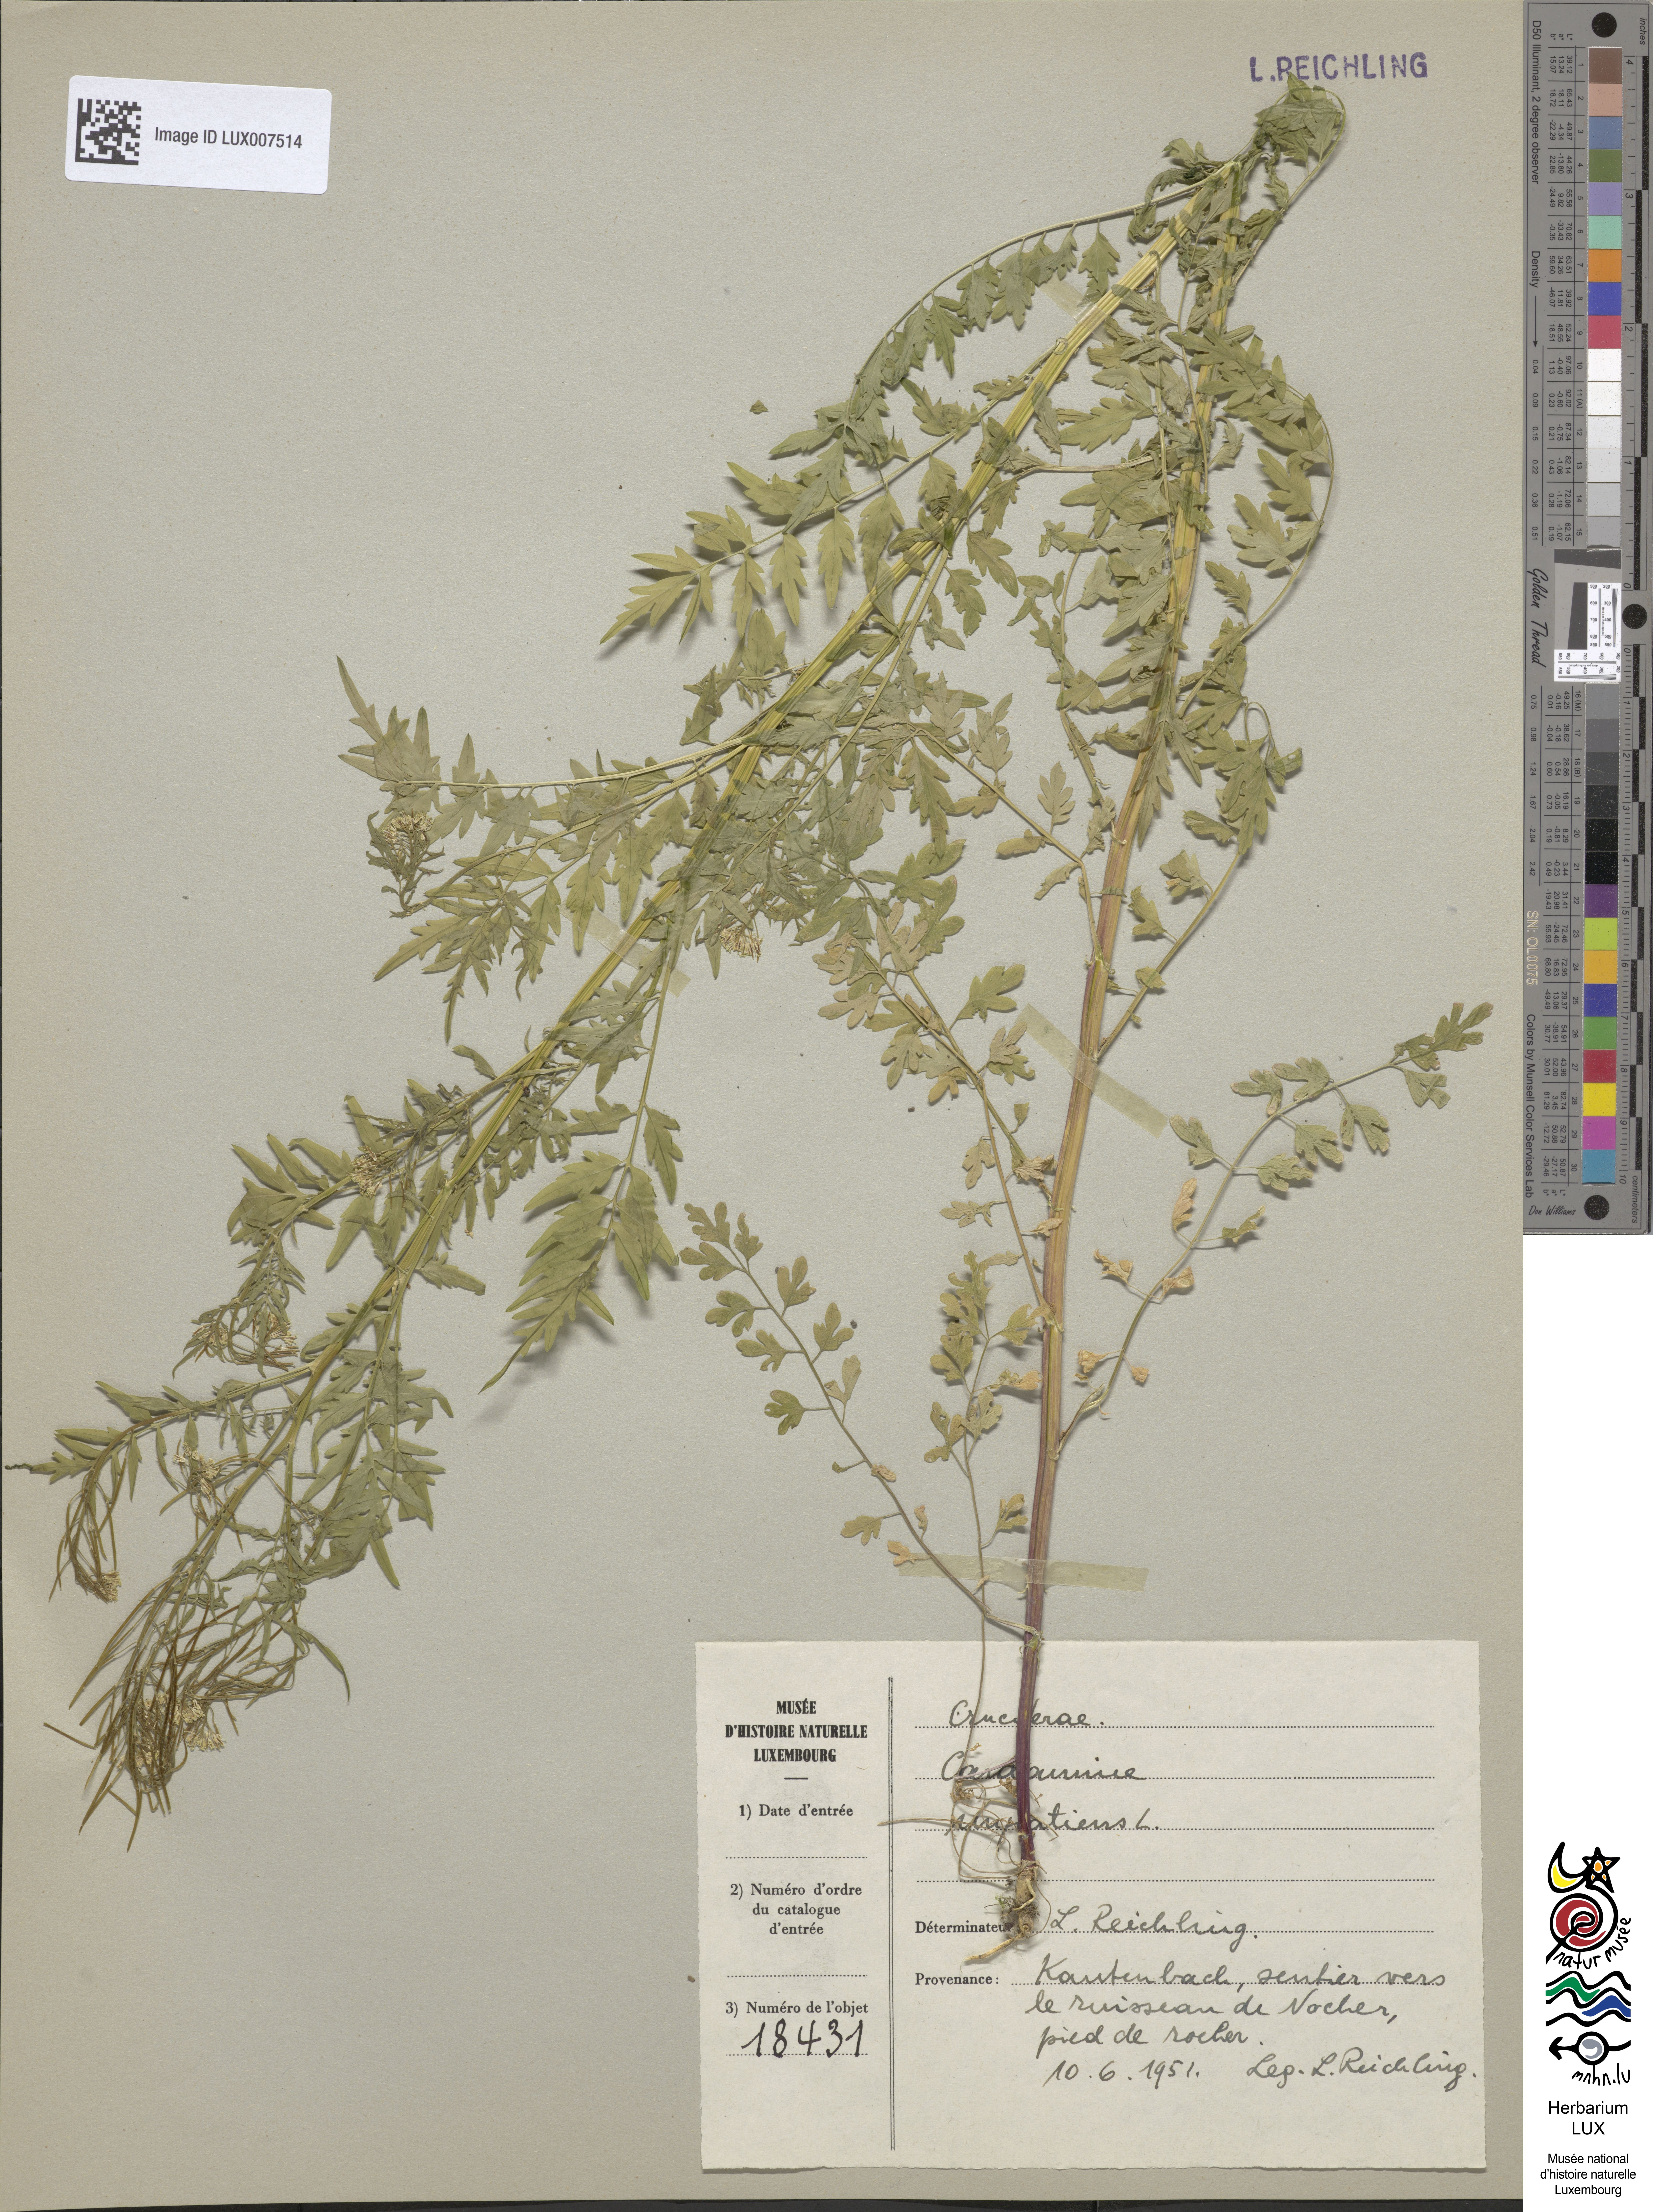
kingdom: Plantae
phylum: Tracheophyta
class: Magnoliopsida
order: Brassicales
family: Brassicaceae
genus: Cardamine
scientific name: Cardamine impatiens
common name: Narrow-leaved bitter-cress
